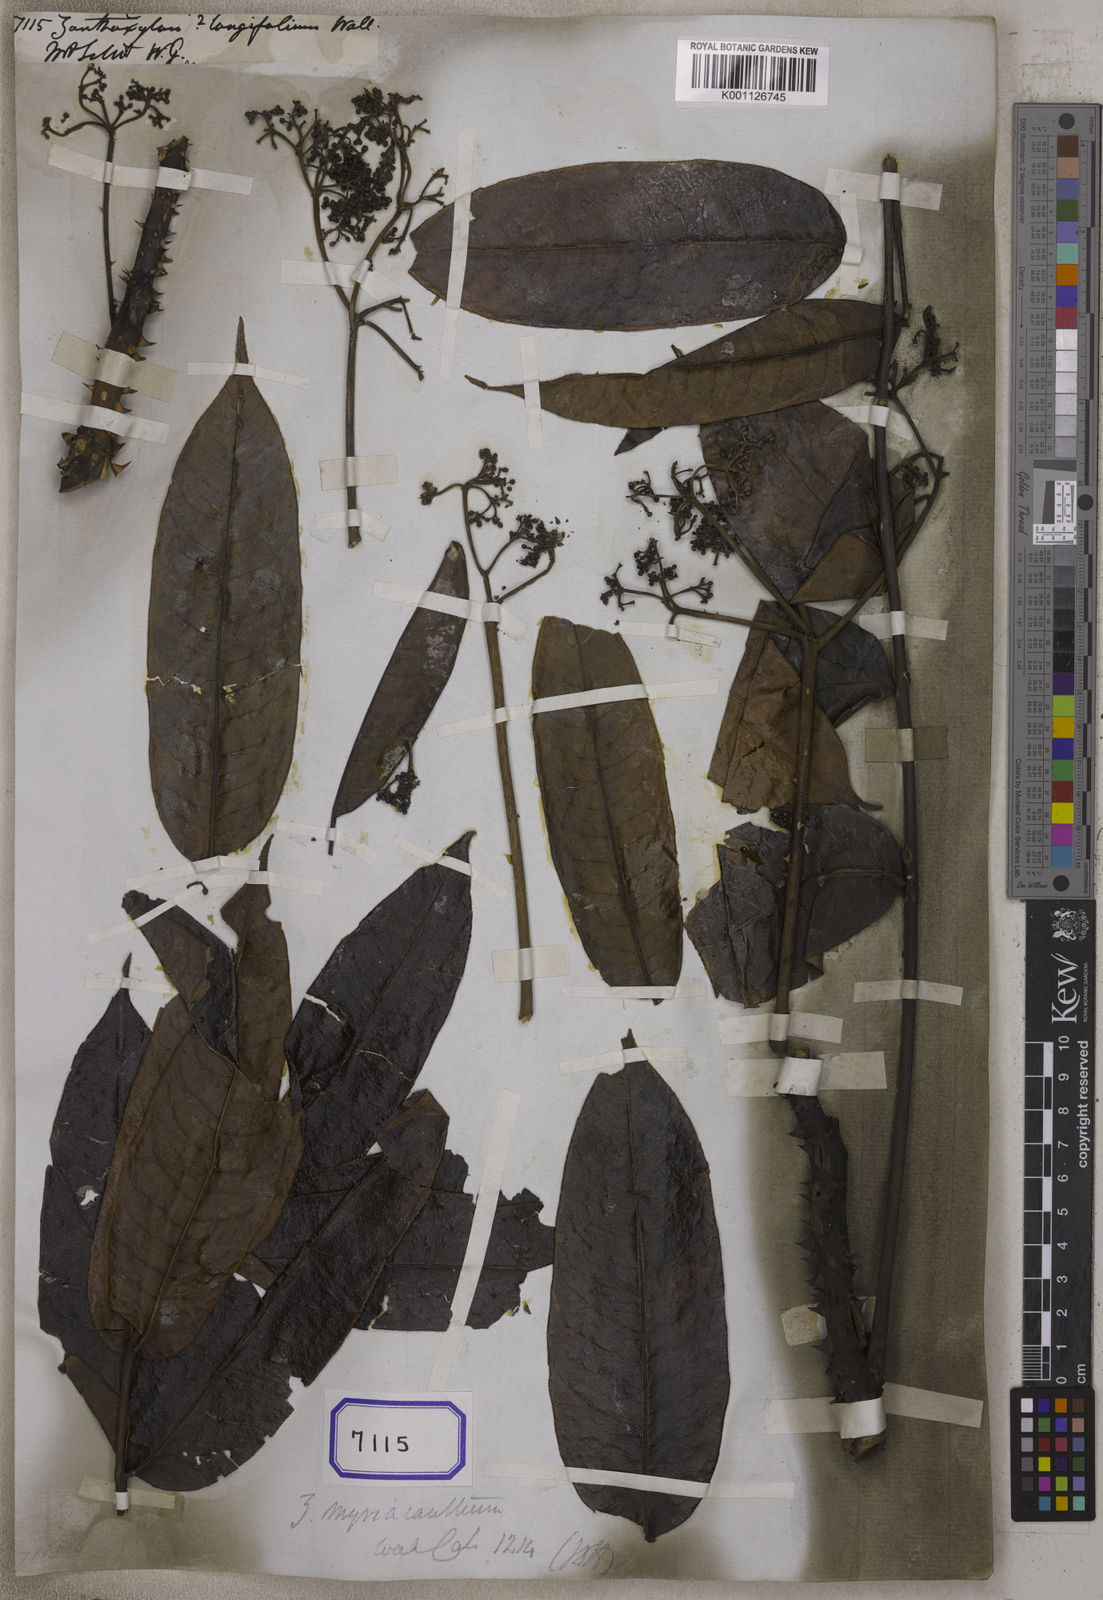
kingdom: Plantae
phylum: Tracheophyta
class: Magnoliopsida
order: Sapindales
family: Rutaceae
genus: Zanthoxylum
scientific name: Zanthoxylum myriacanthum
